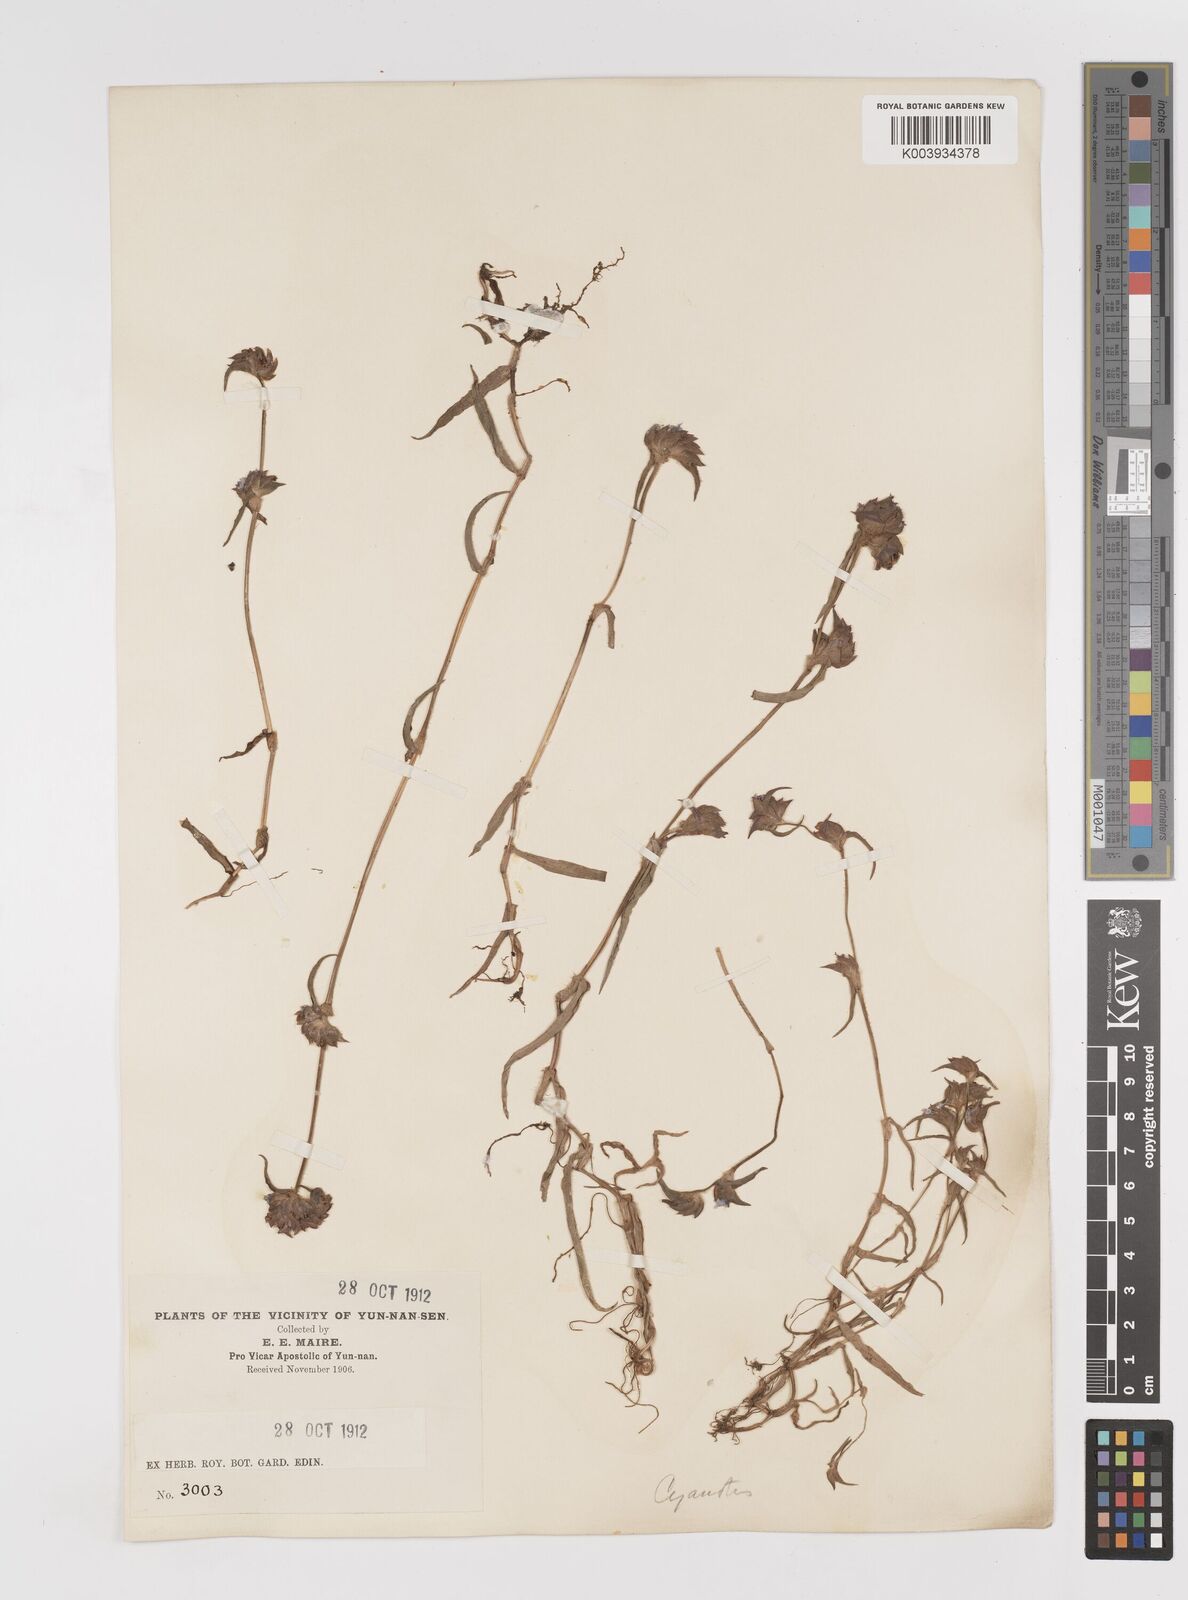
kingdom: Plantae
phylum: Tracheophyta
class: Liliopsida
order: Commelinales
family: Commelinaceae
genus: Cyanotis
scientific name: Cyanotis
